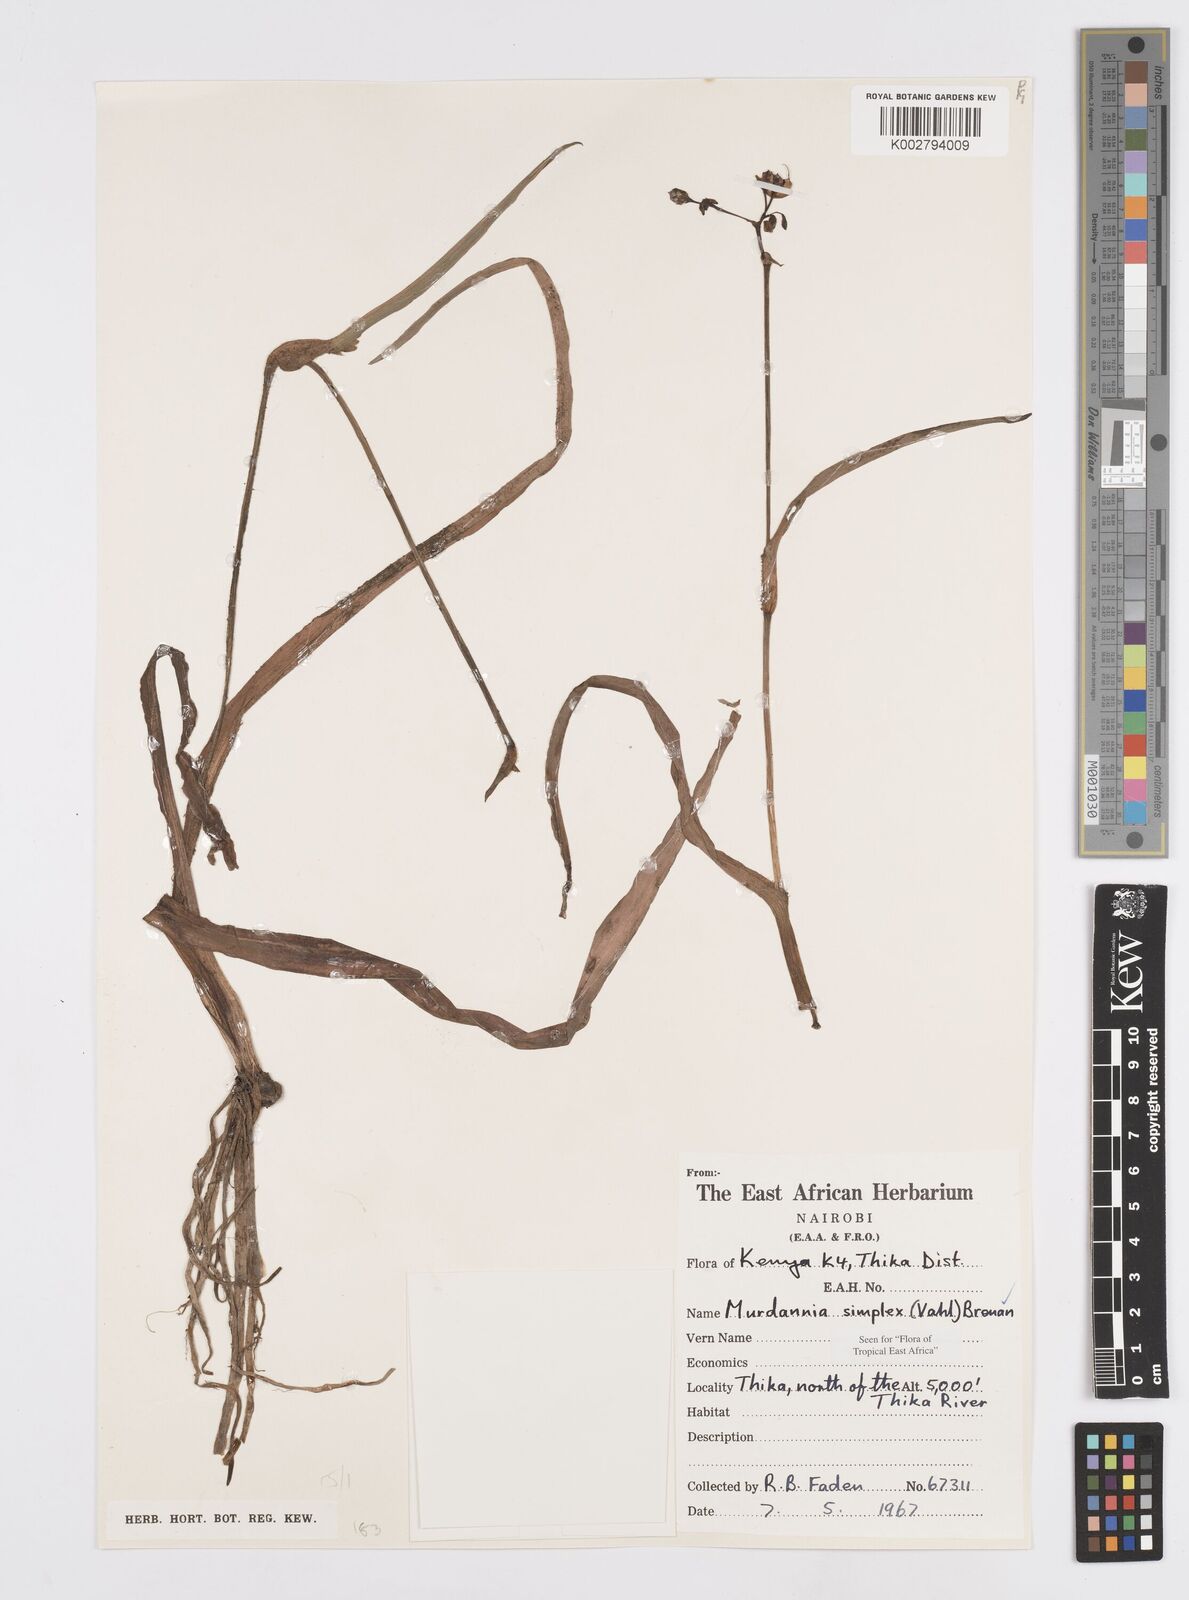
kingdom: Plantae
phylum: Tracheophyta
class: Liliopsida
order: Commelinales
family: Commelinaceae
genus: Murdannia
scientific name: Murdannia simplex
